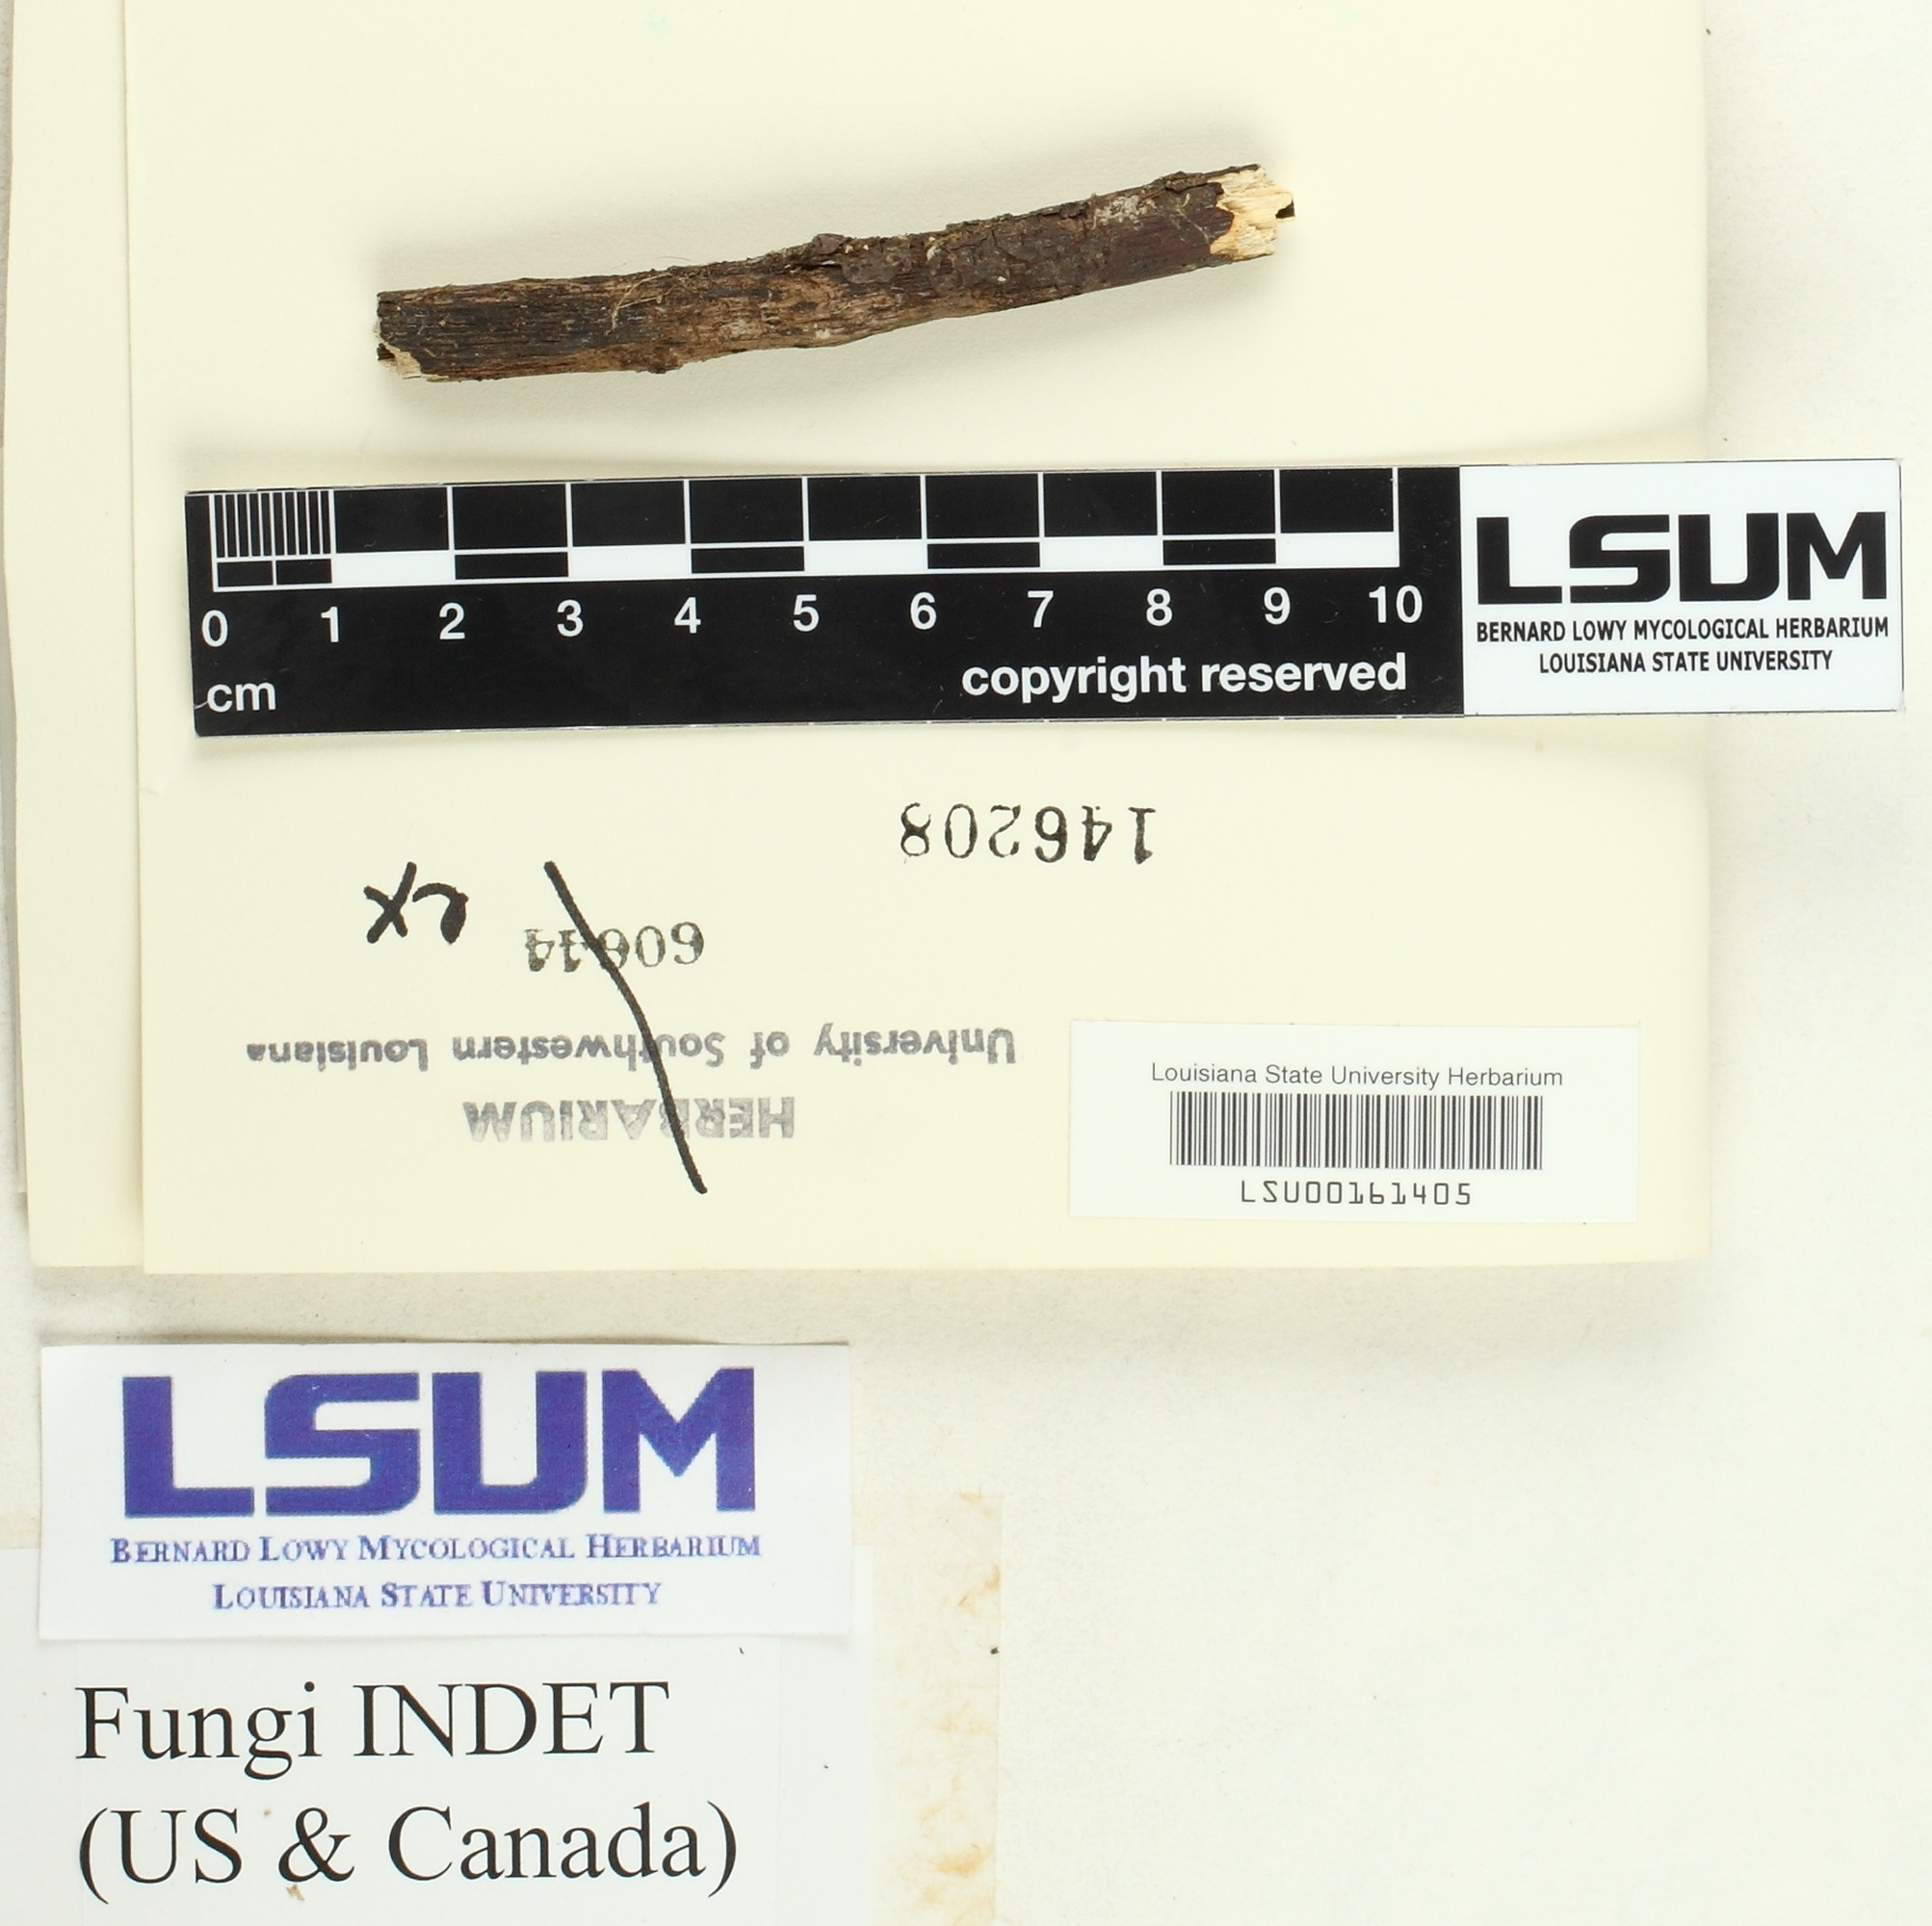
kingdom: Fungi
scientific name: Fungi
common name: Fungi
